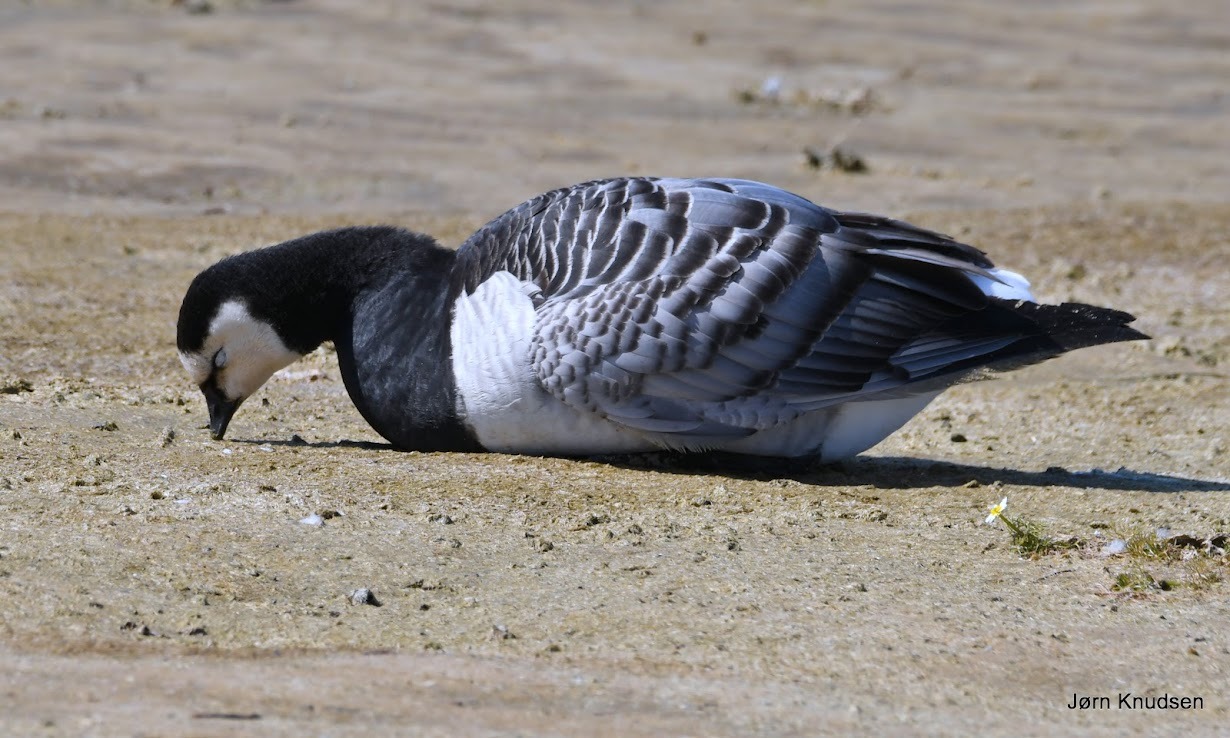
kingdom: Animalia
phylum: Chordata
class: Aves
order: Anseriformes
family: Anatidae
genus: Branta
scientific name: Branta leucopsis
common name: Bramgås
